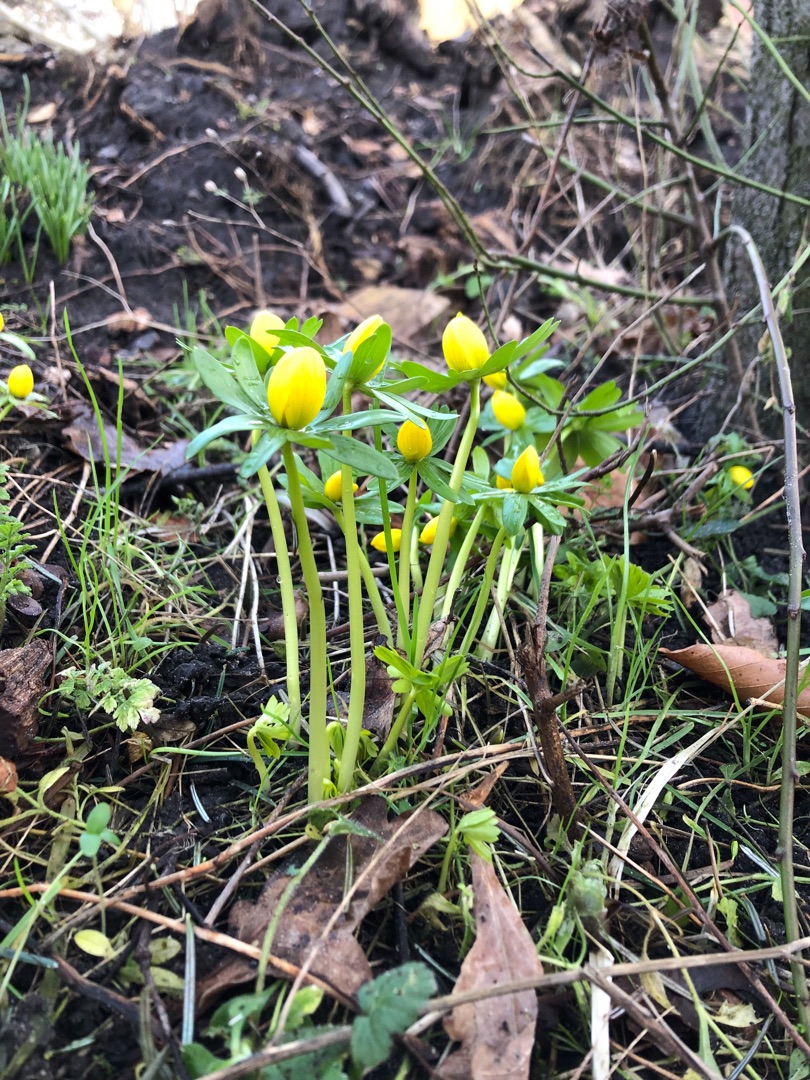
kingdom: Plantae
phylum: Tracheophyta
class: Magnoliopsida
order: Ranunculales
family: Ranunculaceae
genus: Eranthis
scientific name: Eranthis hyemalis
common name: Erantis
